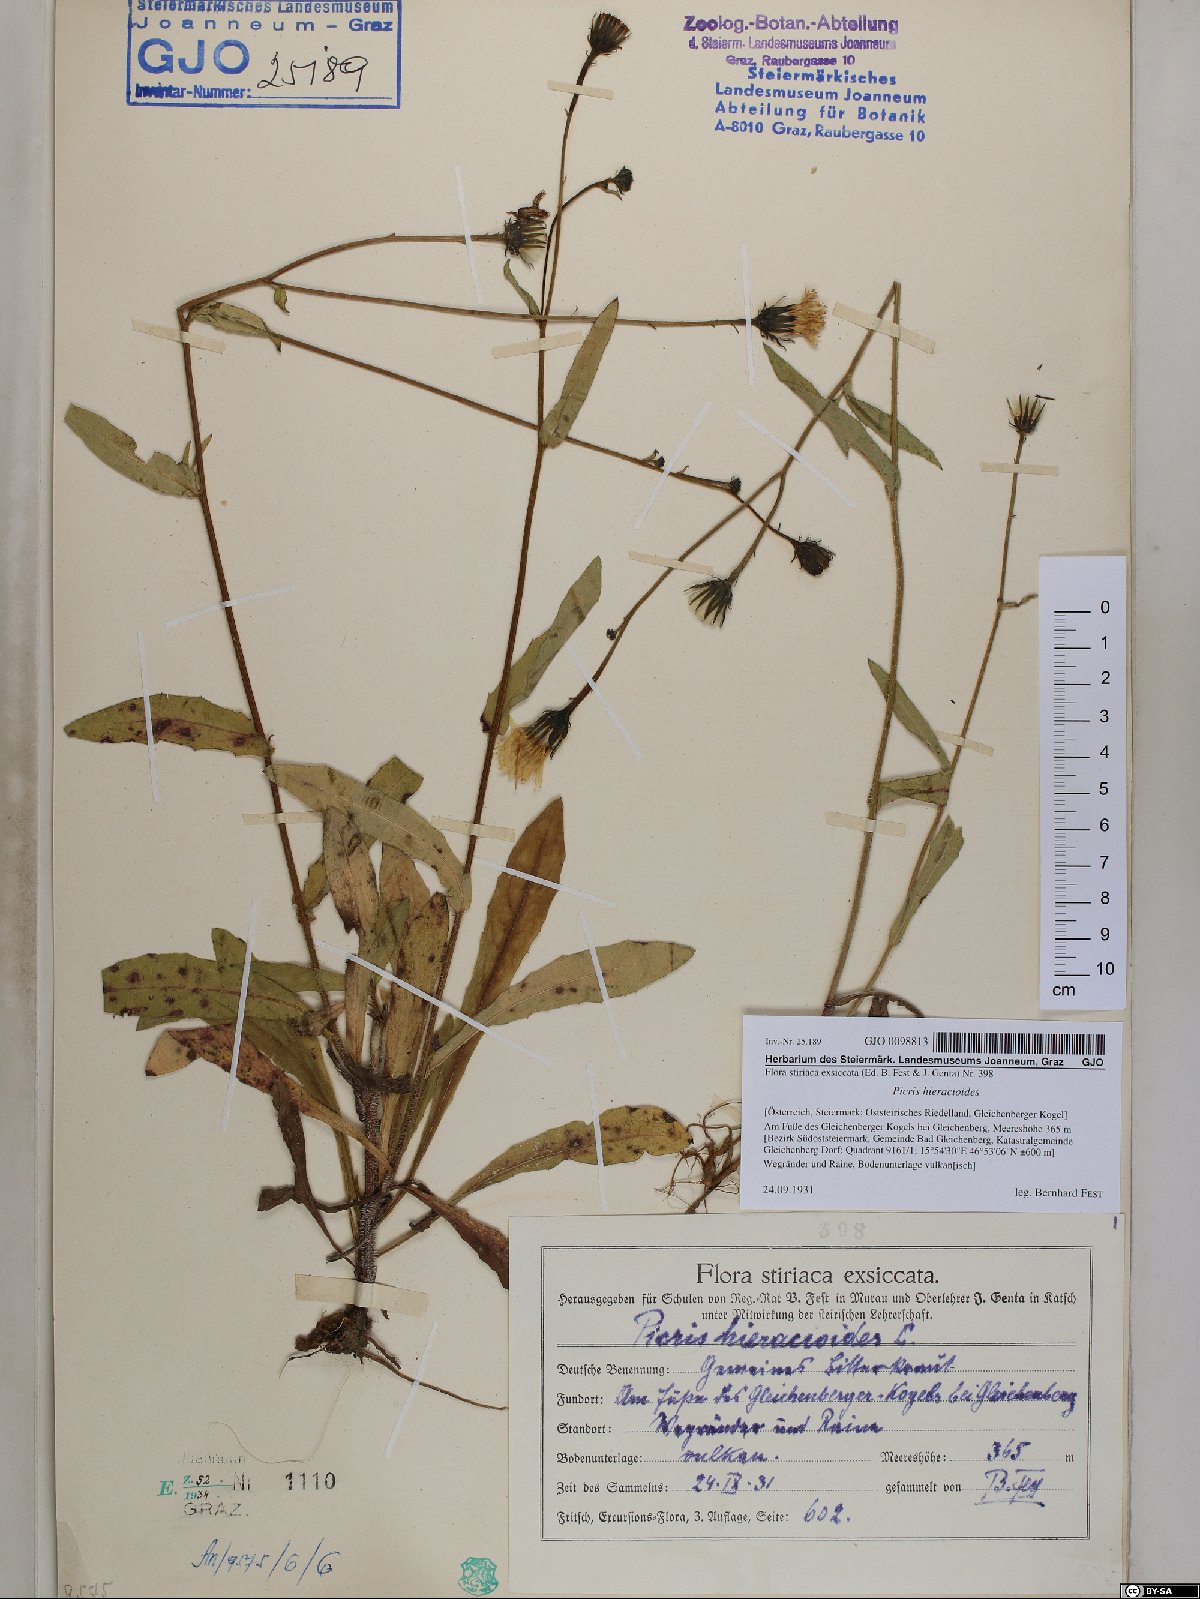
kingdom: Plantae
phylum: Tracheophyta
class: Magnoliopsida
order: Asterales
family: Asteraceae
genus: Picris
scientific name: Picris hieracioides
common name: Hawkweed oxtongue
